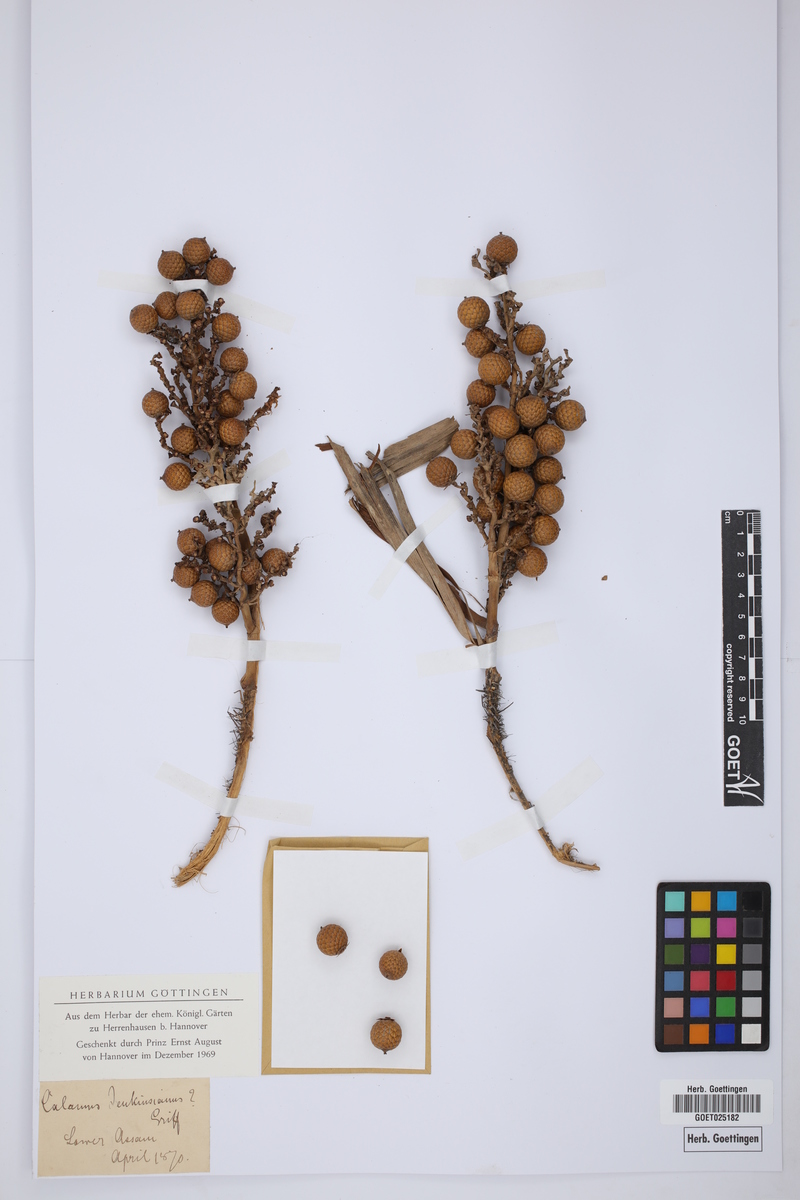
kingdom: Plantae
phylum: Tracheophyta
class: Liliopsida
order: Arecales
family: Arecaceae
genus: Calamus
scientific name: Calamus flagellum
